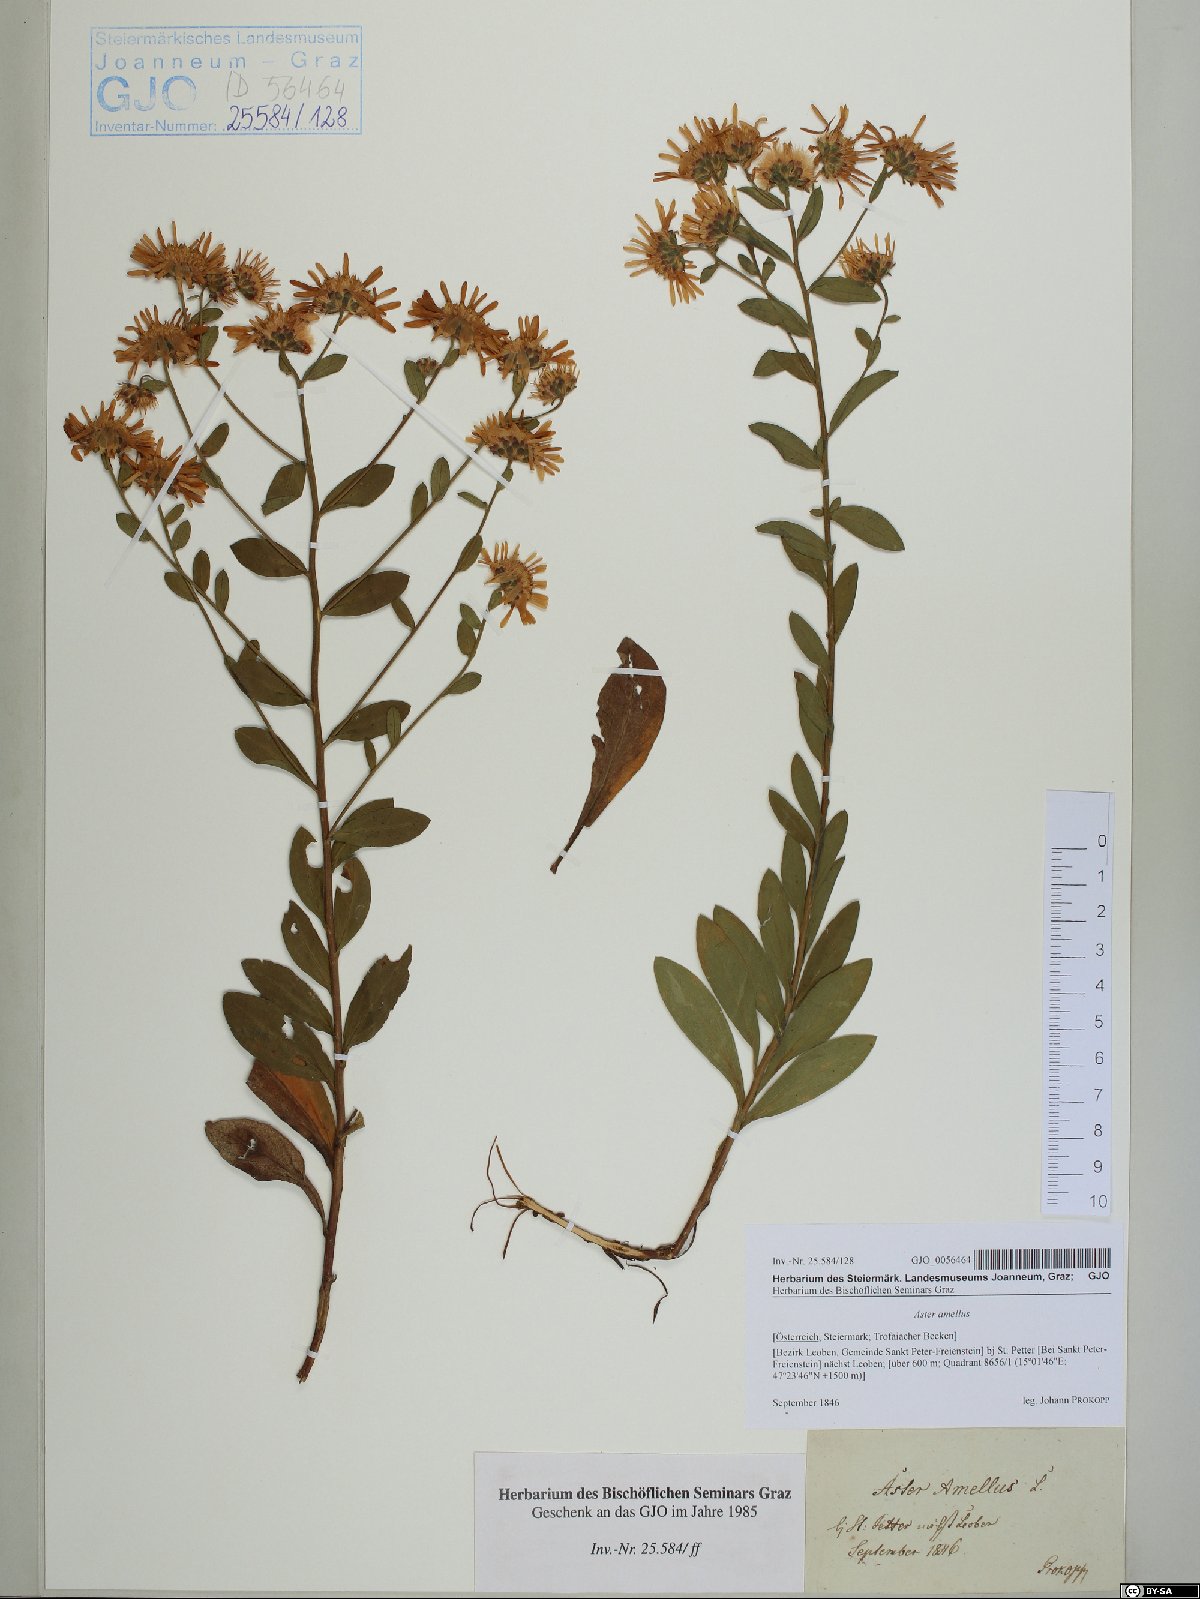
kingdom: Plantae
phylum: Tracheophyta
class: Magnoliopsida
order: Asterales
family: Asteraceae
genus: Aster
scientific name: Aster amellus
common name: European michaelmas daisy
